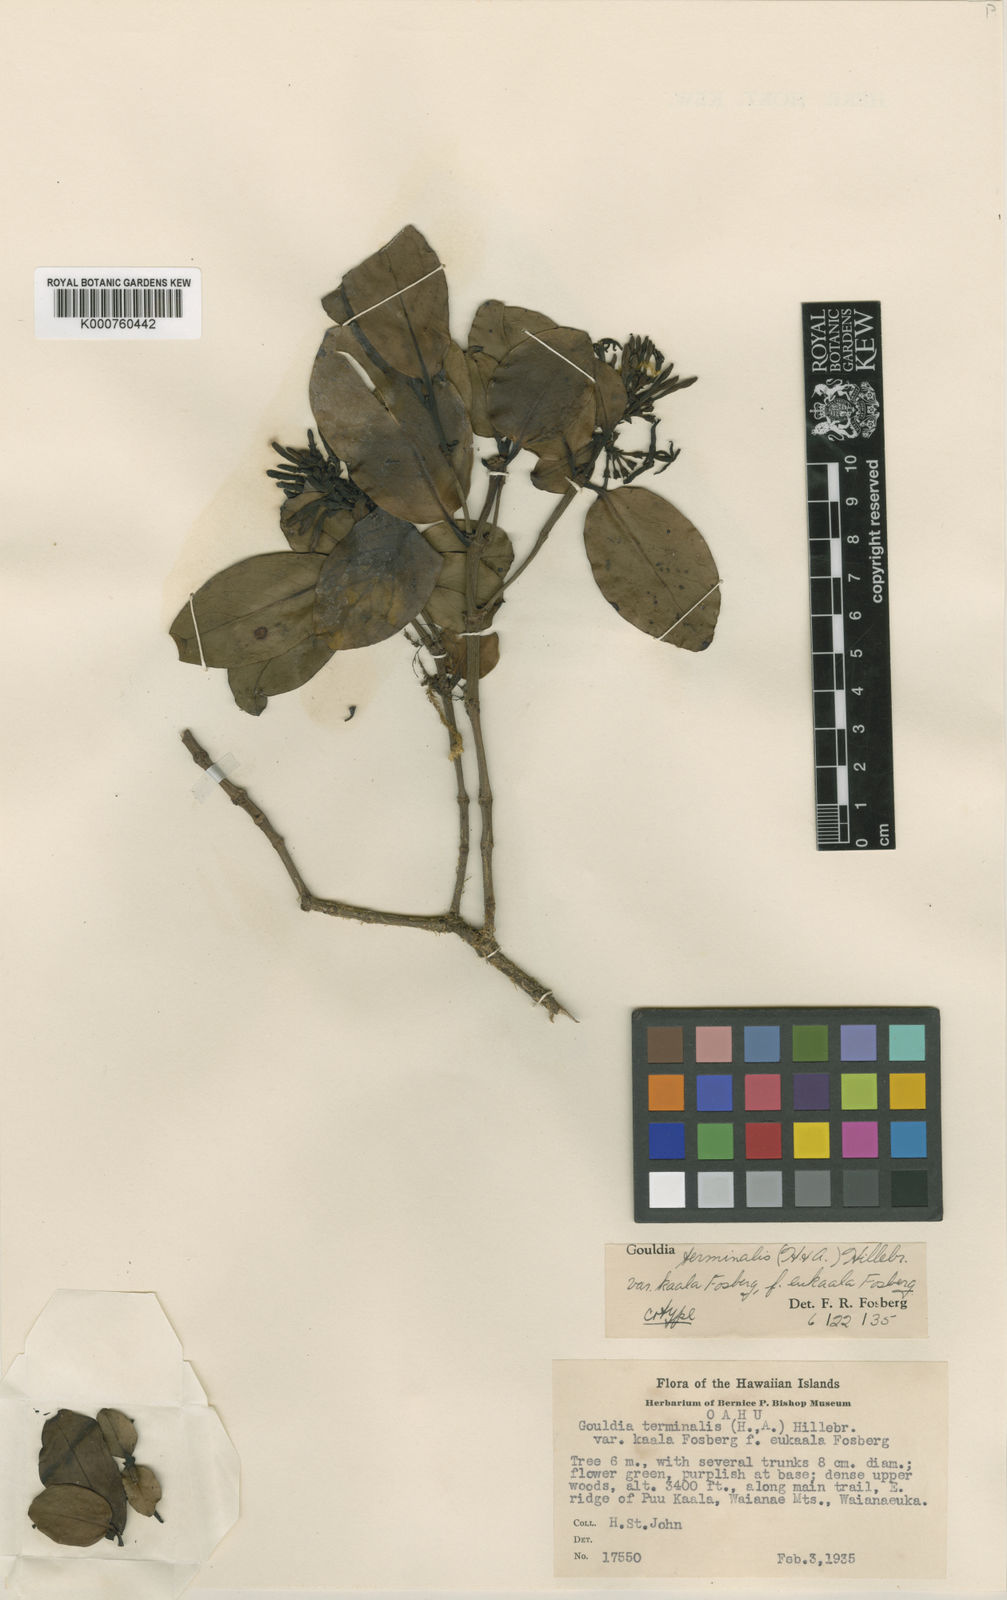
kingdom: Plantae
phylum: Tracheophyta
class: Magnoliopsida
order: Gentianales
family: Rubiaceae
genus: Kadua
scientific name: Kadua affinis
